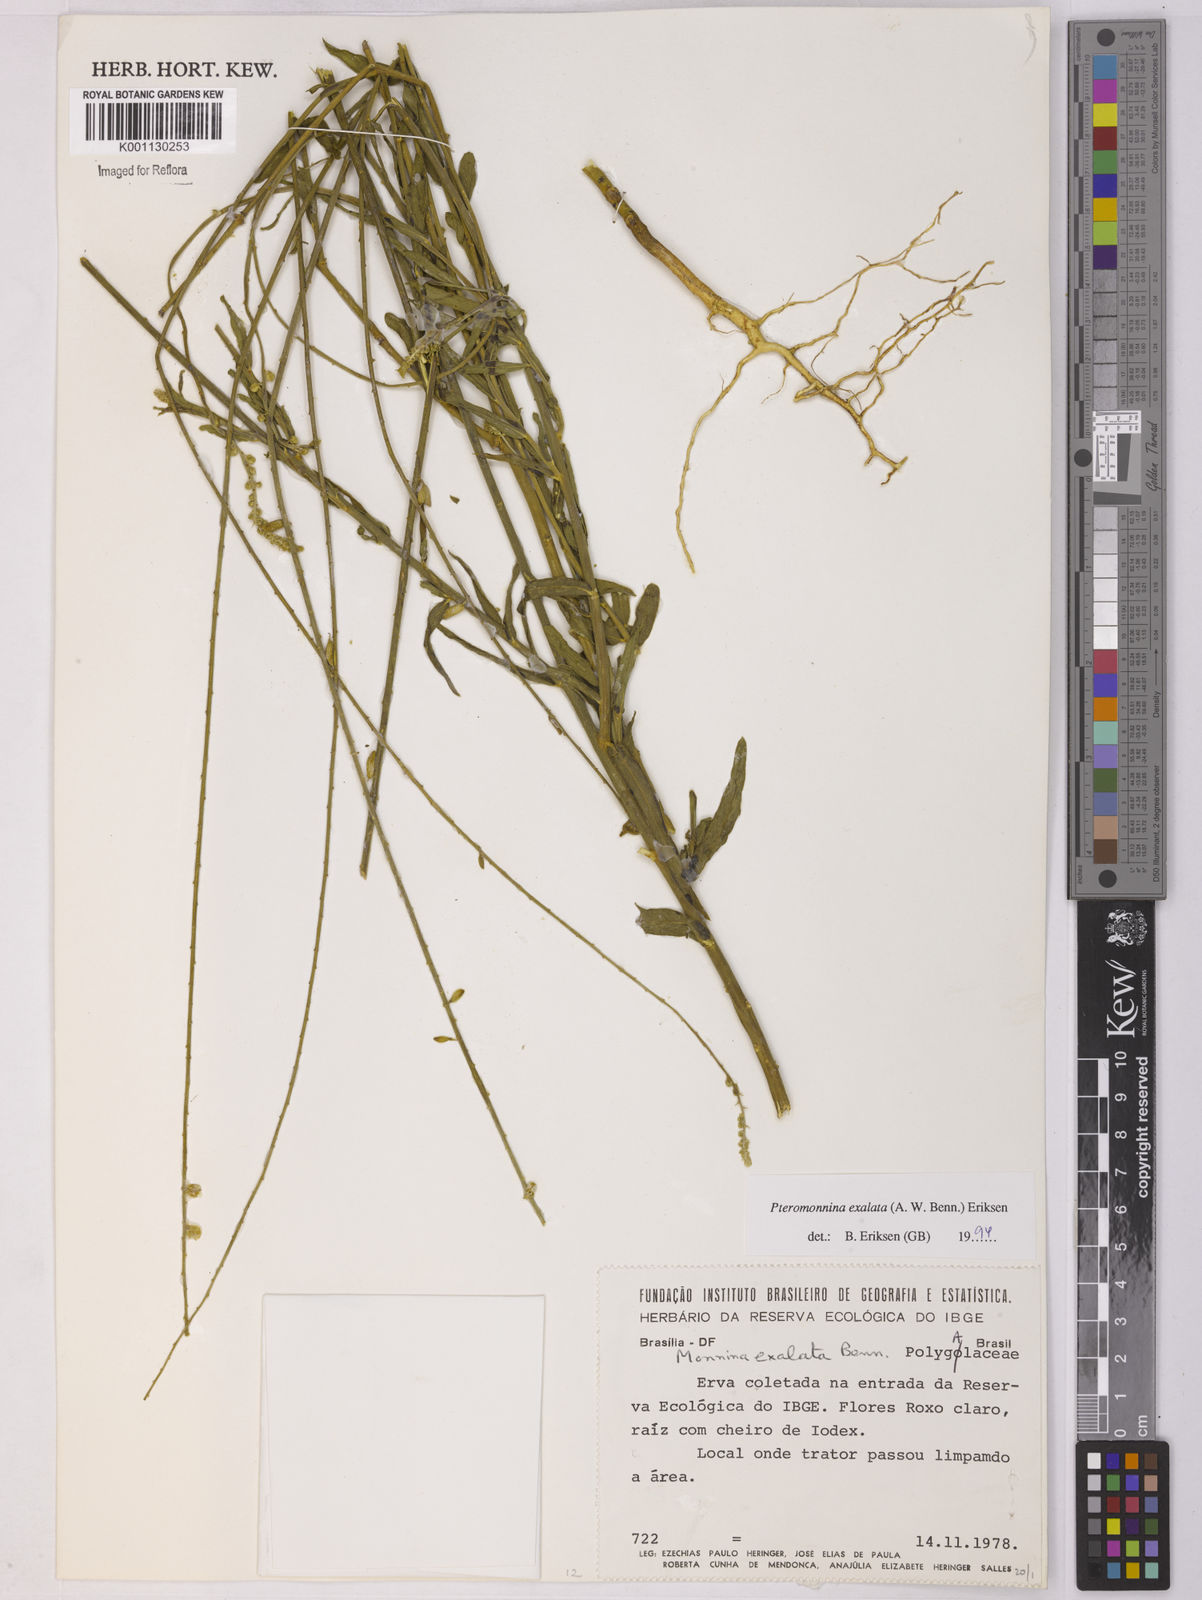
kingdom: Plantae
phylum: Tracheophyta
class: Magnoliopsida
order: Fabales
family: Polygalaceae
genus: Monnina
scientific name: Monnina exalata
